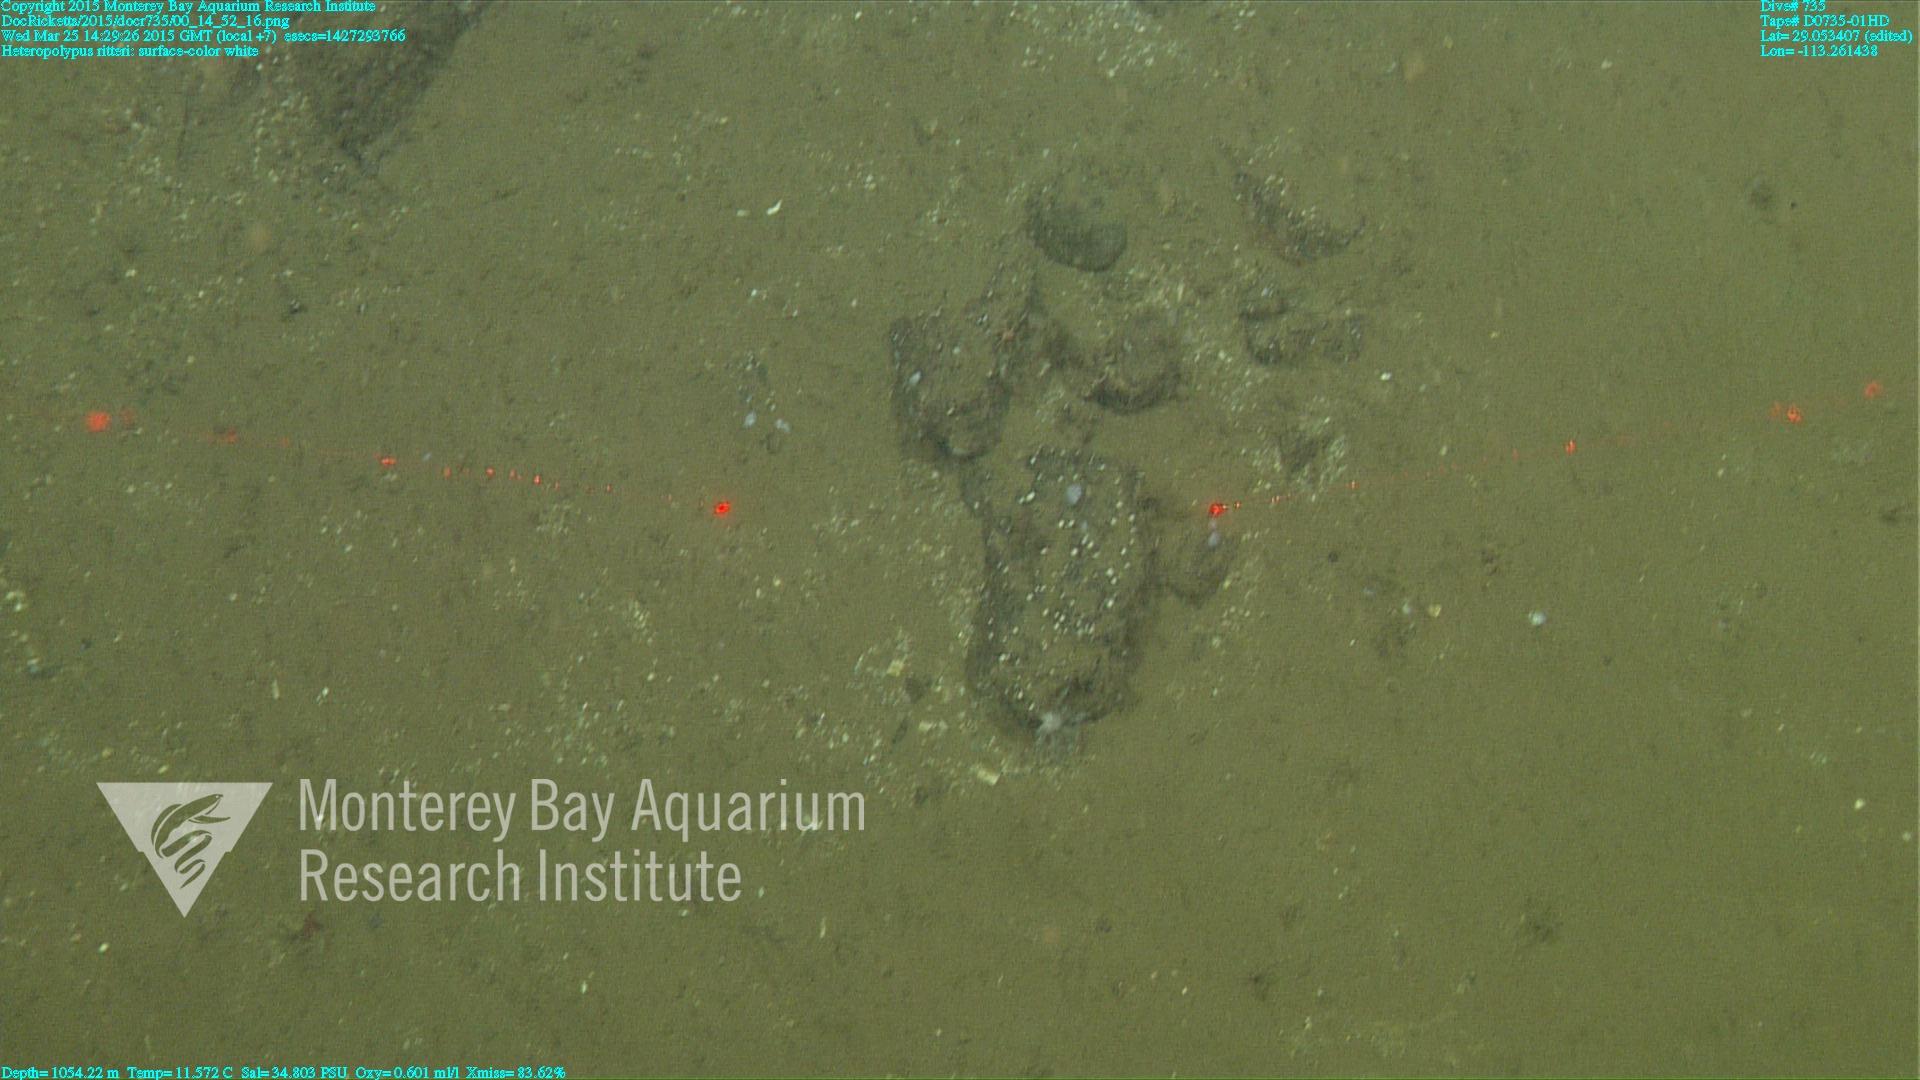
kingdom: Animalia
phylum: Cnidaria
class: Anthozoa
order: Scleralcyonacea
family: Coralliidae
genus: Heteropolypus
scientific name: Heteropolypus ritteri
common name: Ritter's soft coral
